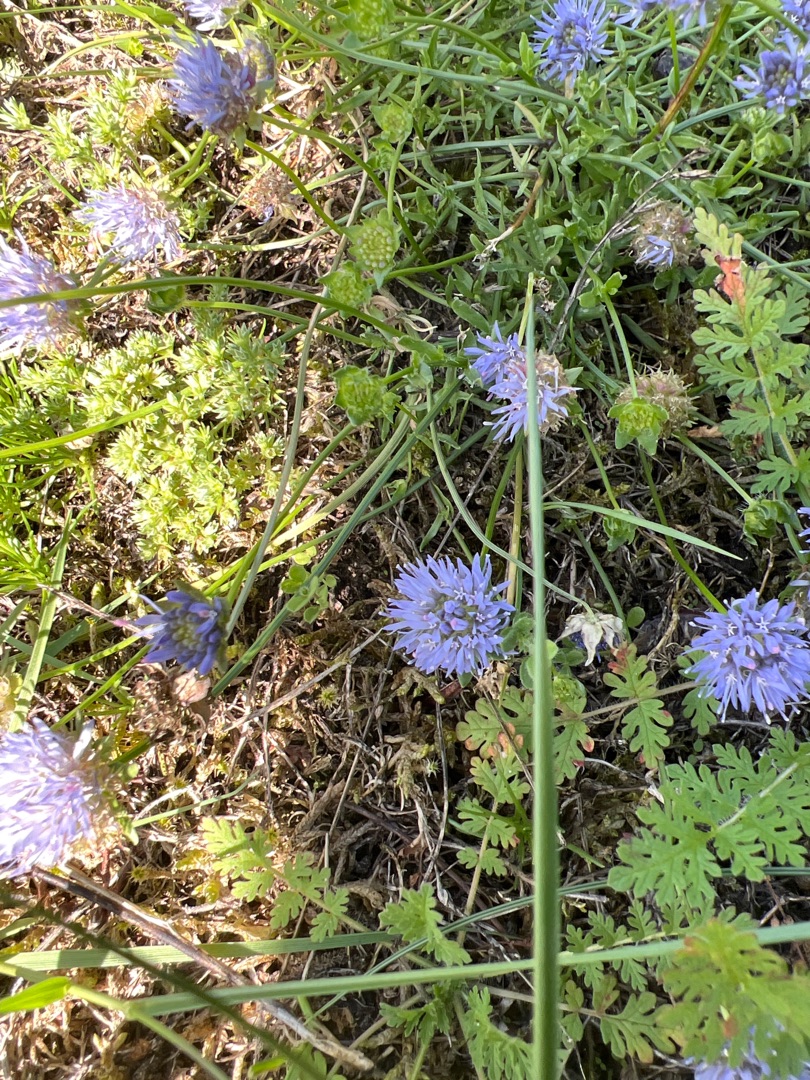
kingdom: Plantae
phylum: Tracheophyta
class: Magnoliopsida
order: Asterales
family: Campanulaceae
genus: Jasione
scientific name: Jasione montana
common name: Blåmunke
